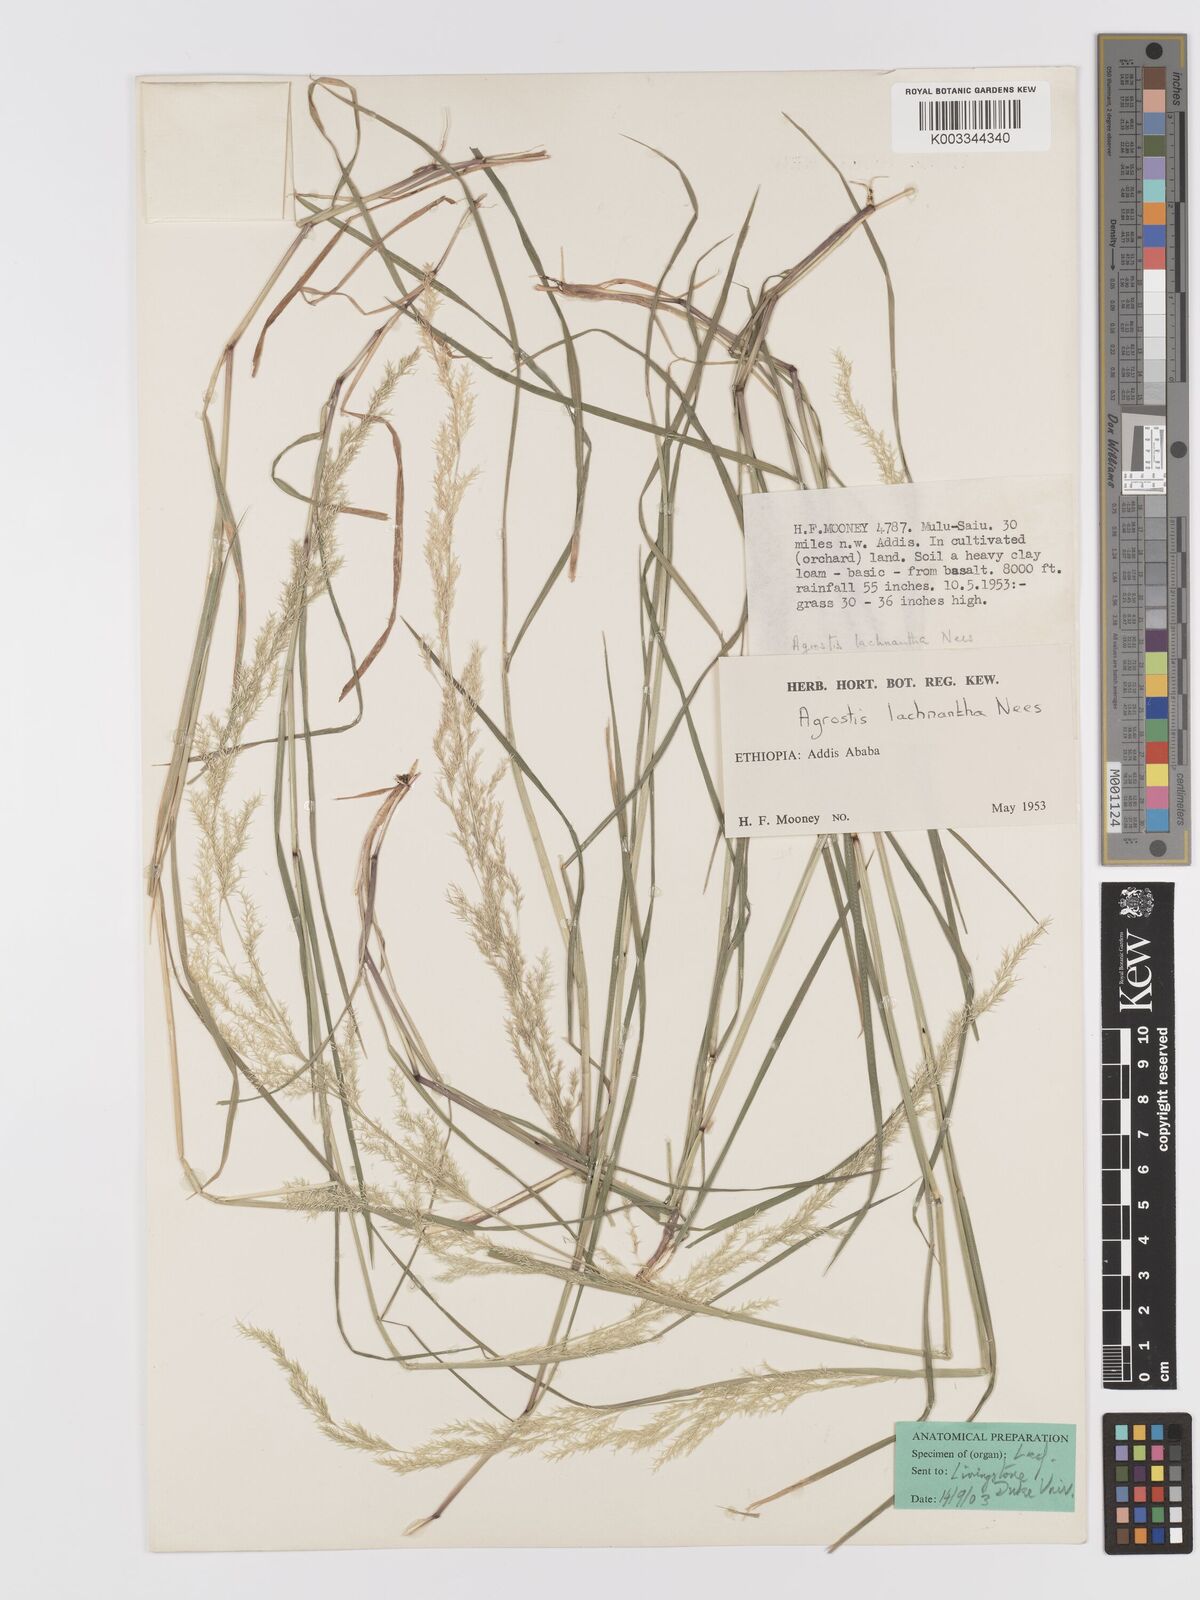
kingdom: Plantae
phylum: Tracheophyta
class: Liliopsida
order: Poales
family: Poaceae
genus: Lachnagrostis
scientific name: Lachnagrostis lachnantha
